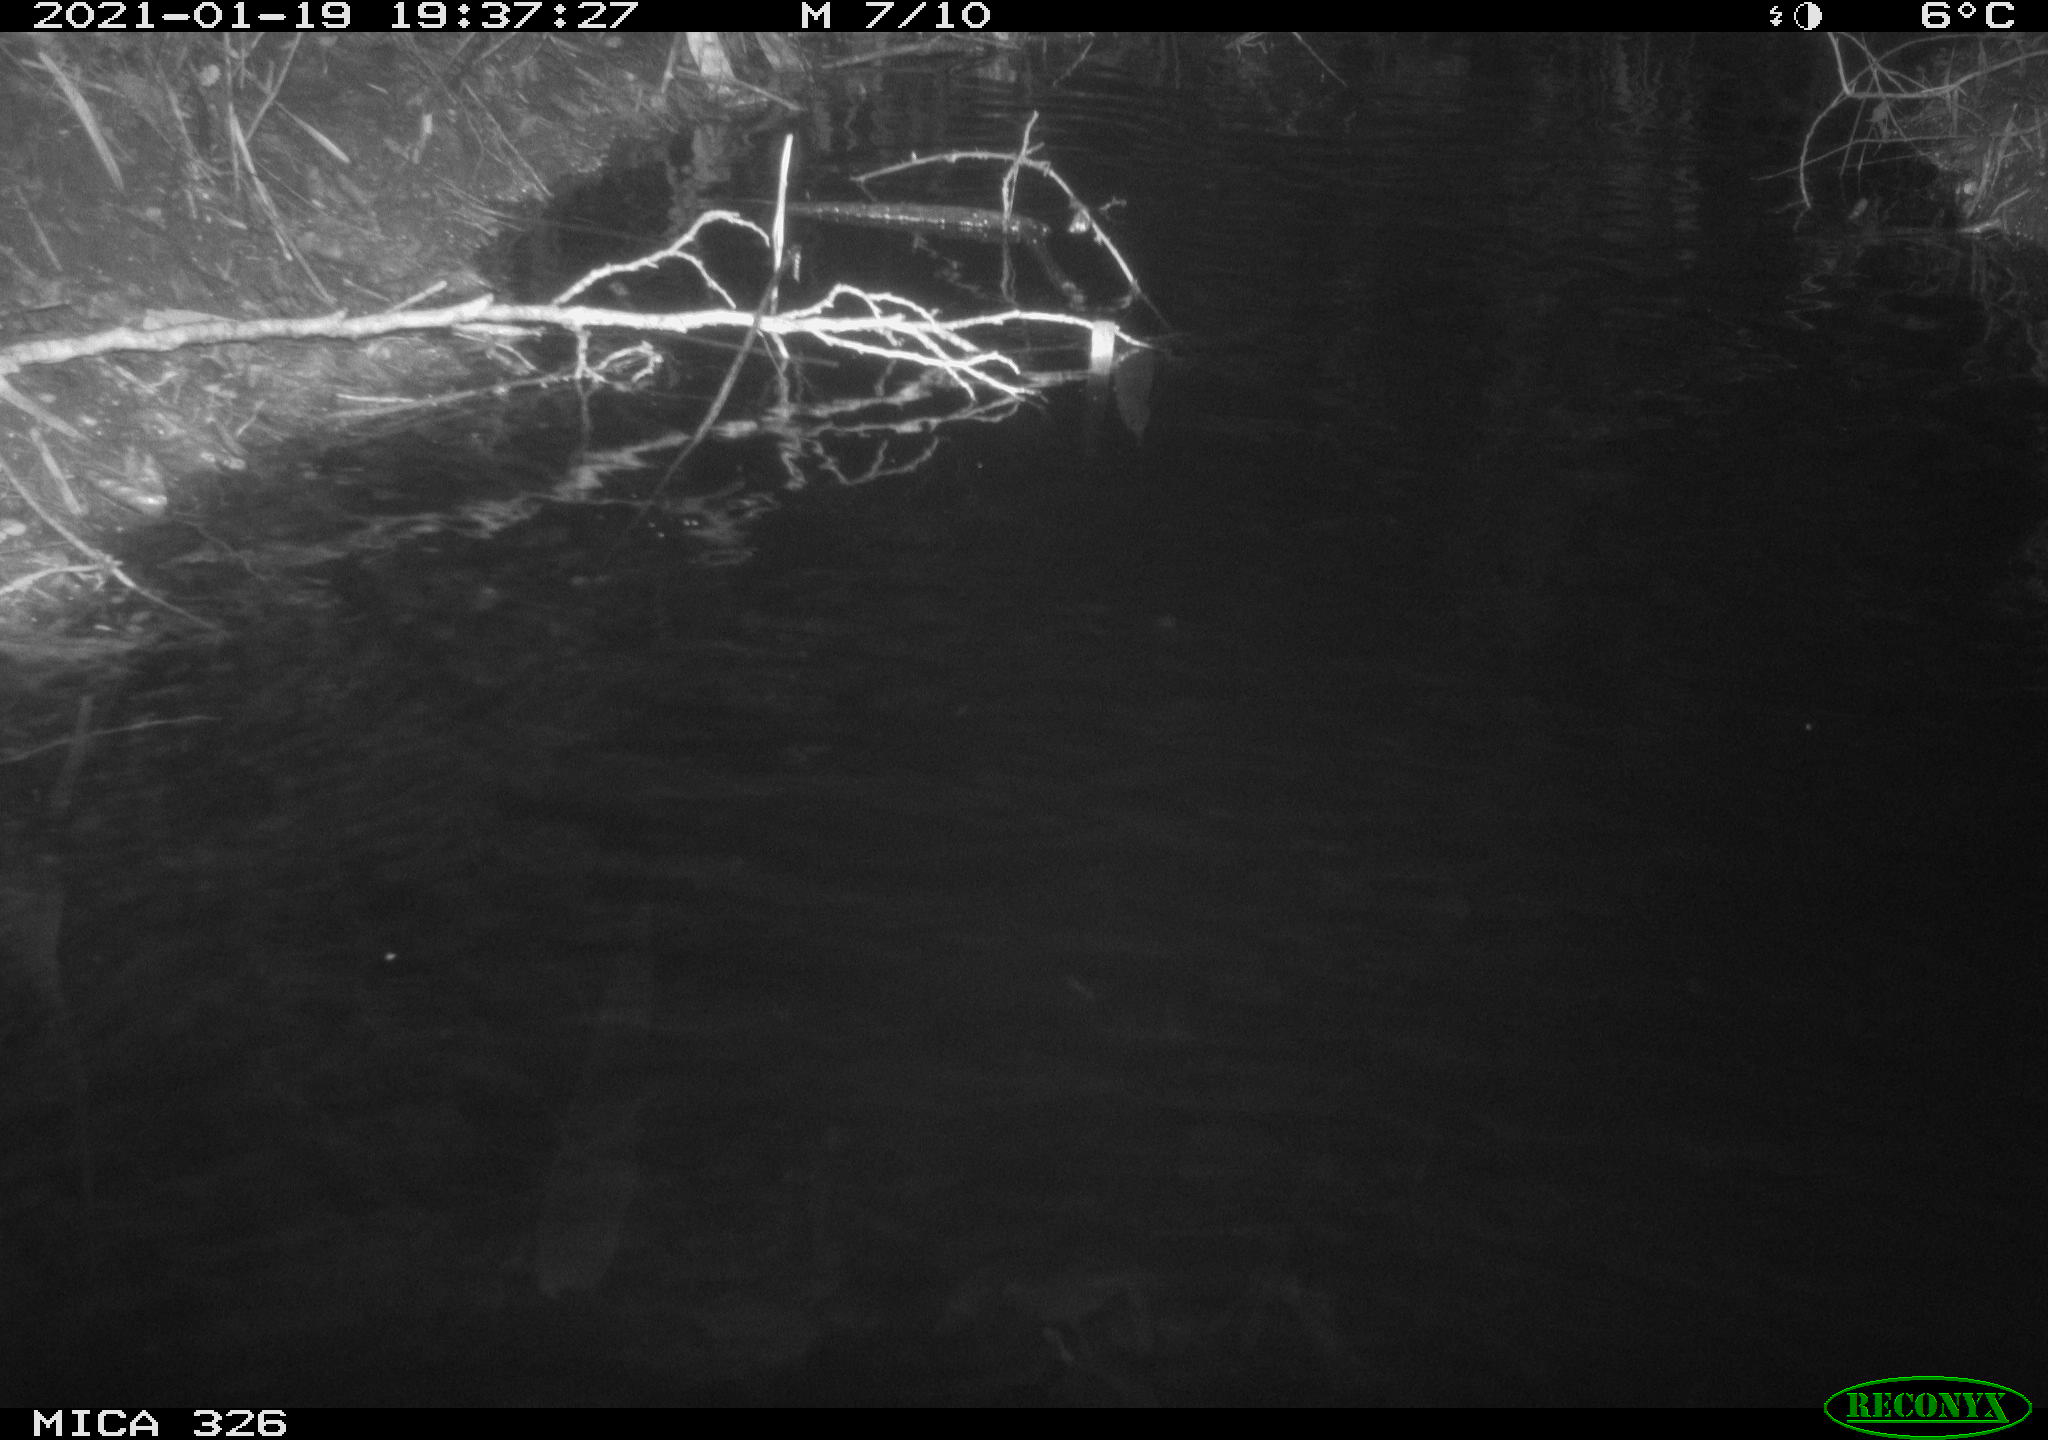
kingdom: Animalia
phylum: Chordata
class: Mammalia
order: Rodentia
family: Cricetidae
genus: Ondatra
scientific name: Ondatra zibethicus
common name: Muskrat
